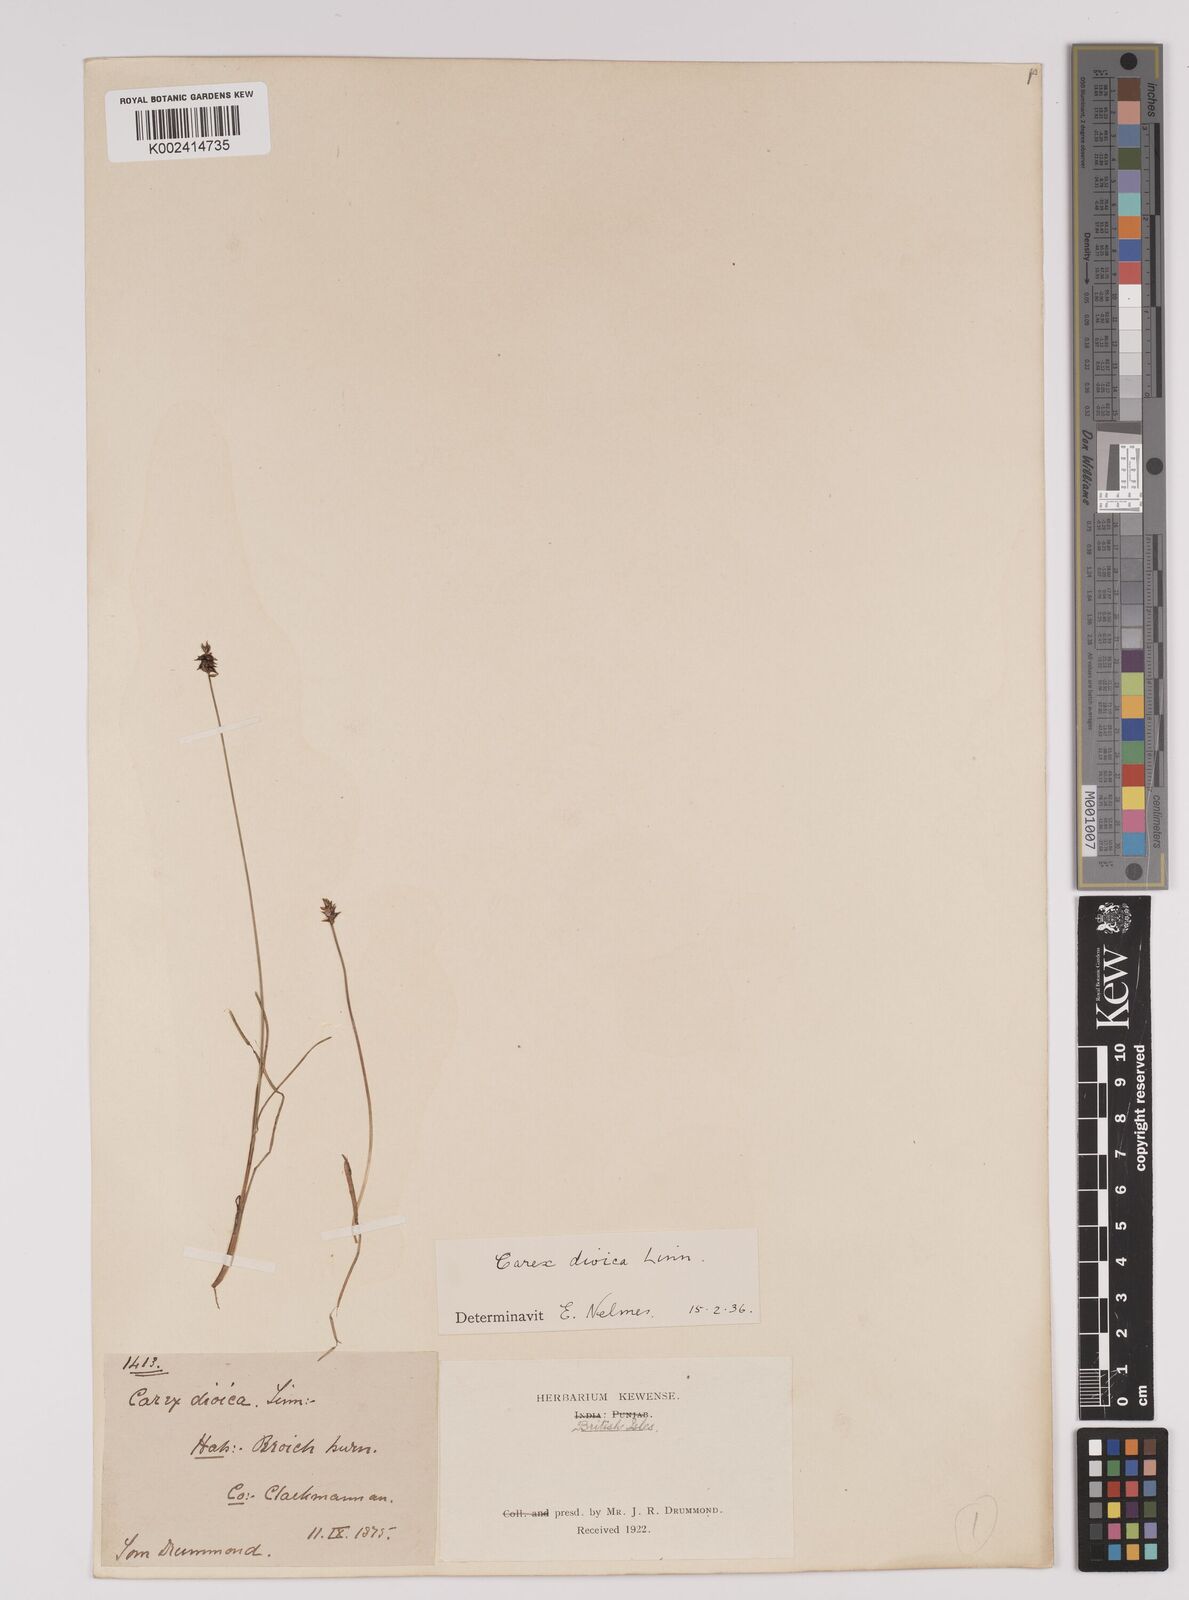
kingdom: Plantae
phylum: Tracheophyta
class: Liliopsida
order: Poales
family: Cyperaceae
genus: Carex
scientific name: Carex dioica
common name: Dioecious sedge
